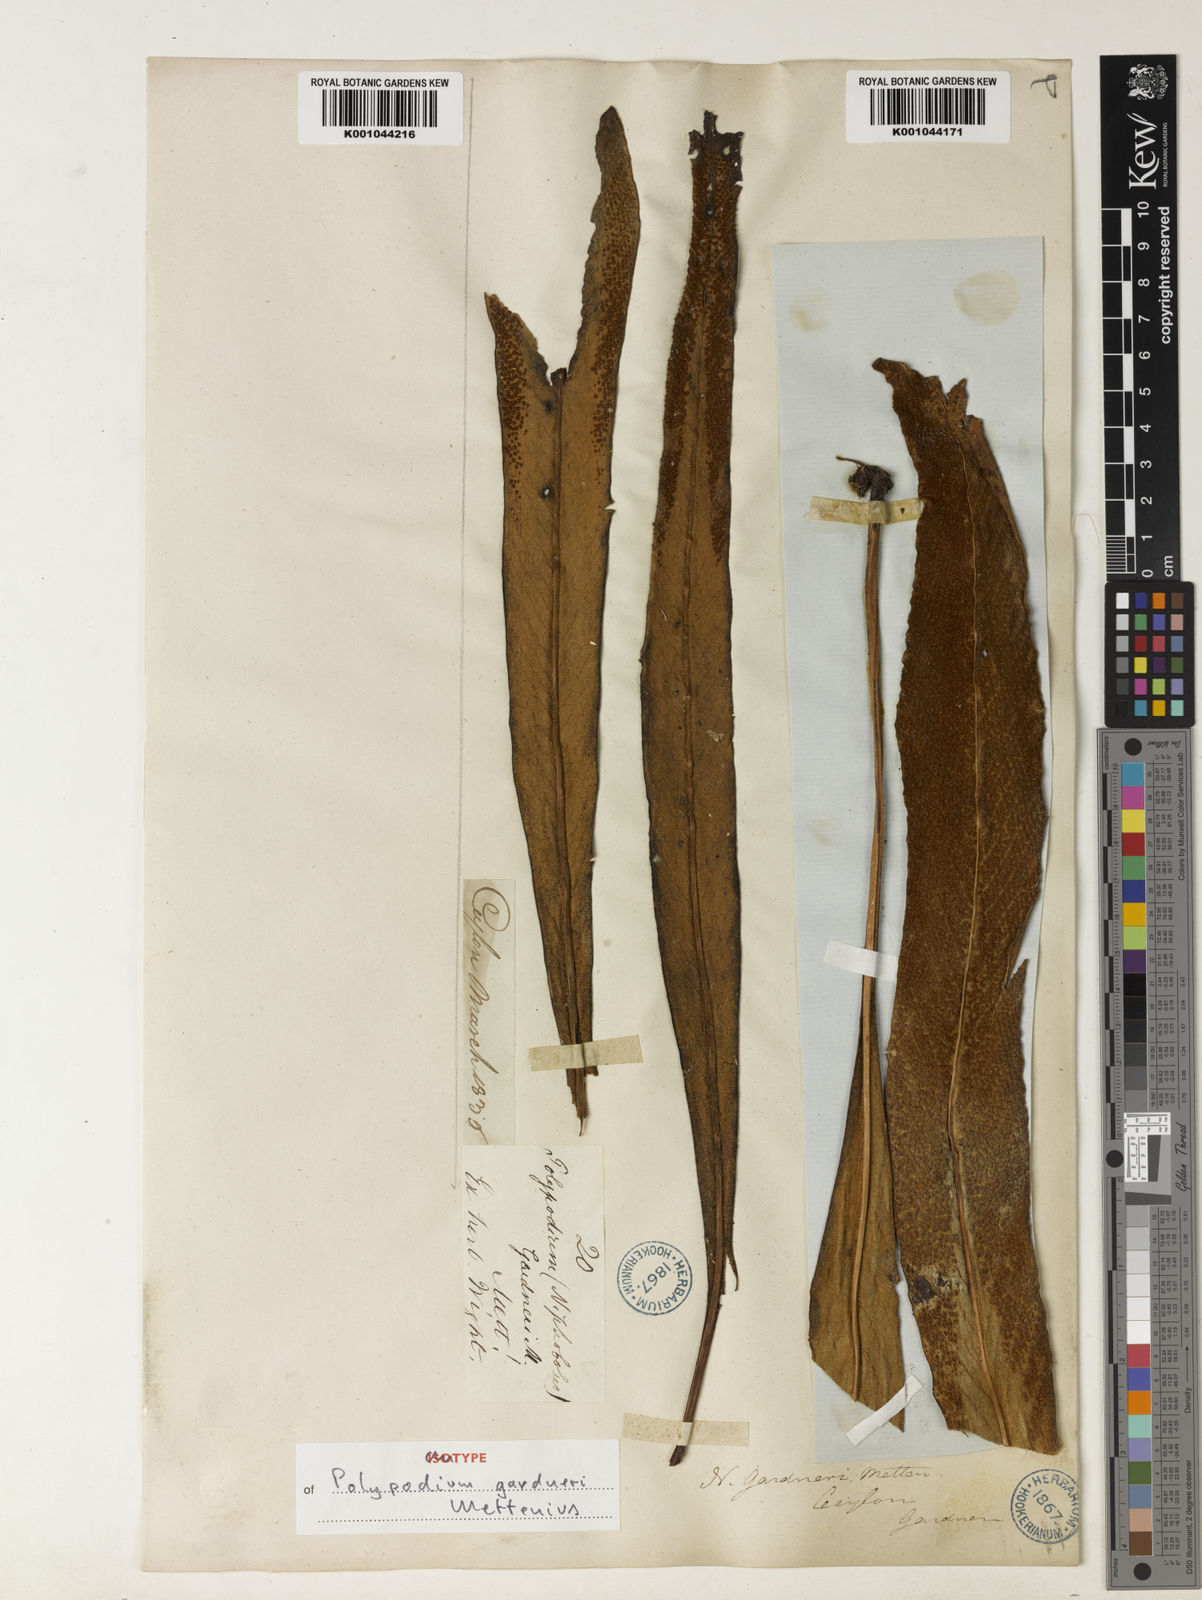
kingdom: Plantae
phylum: Tracheophyta
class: Polypodiopsida
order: Polypodiales
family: Polypodiaceae
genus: Pyrrosia
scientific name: Pyrrosia gardneri
